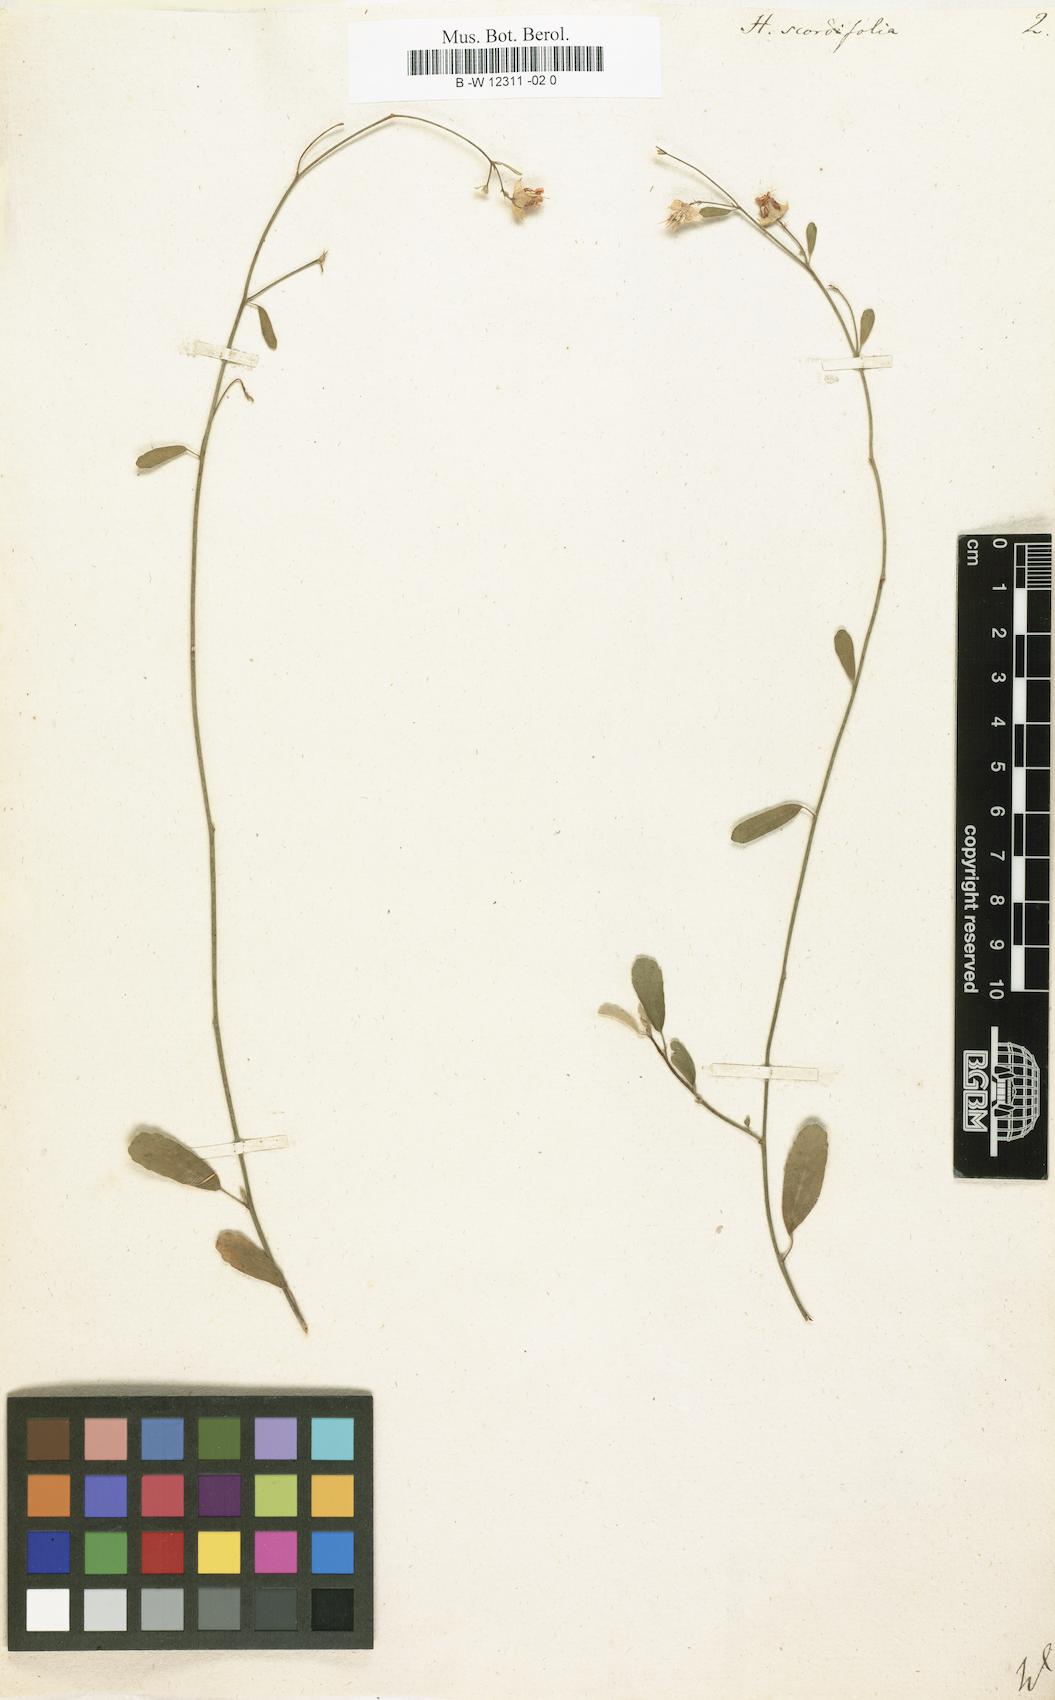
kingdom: Plantae
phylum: Tracheophyta
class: Magnoliopsida
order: Malvales
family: Malvaceae
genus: Hermannia
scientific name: Hermannia scordifolia
